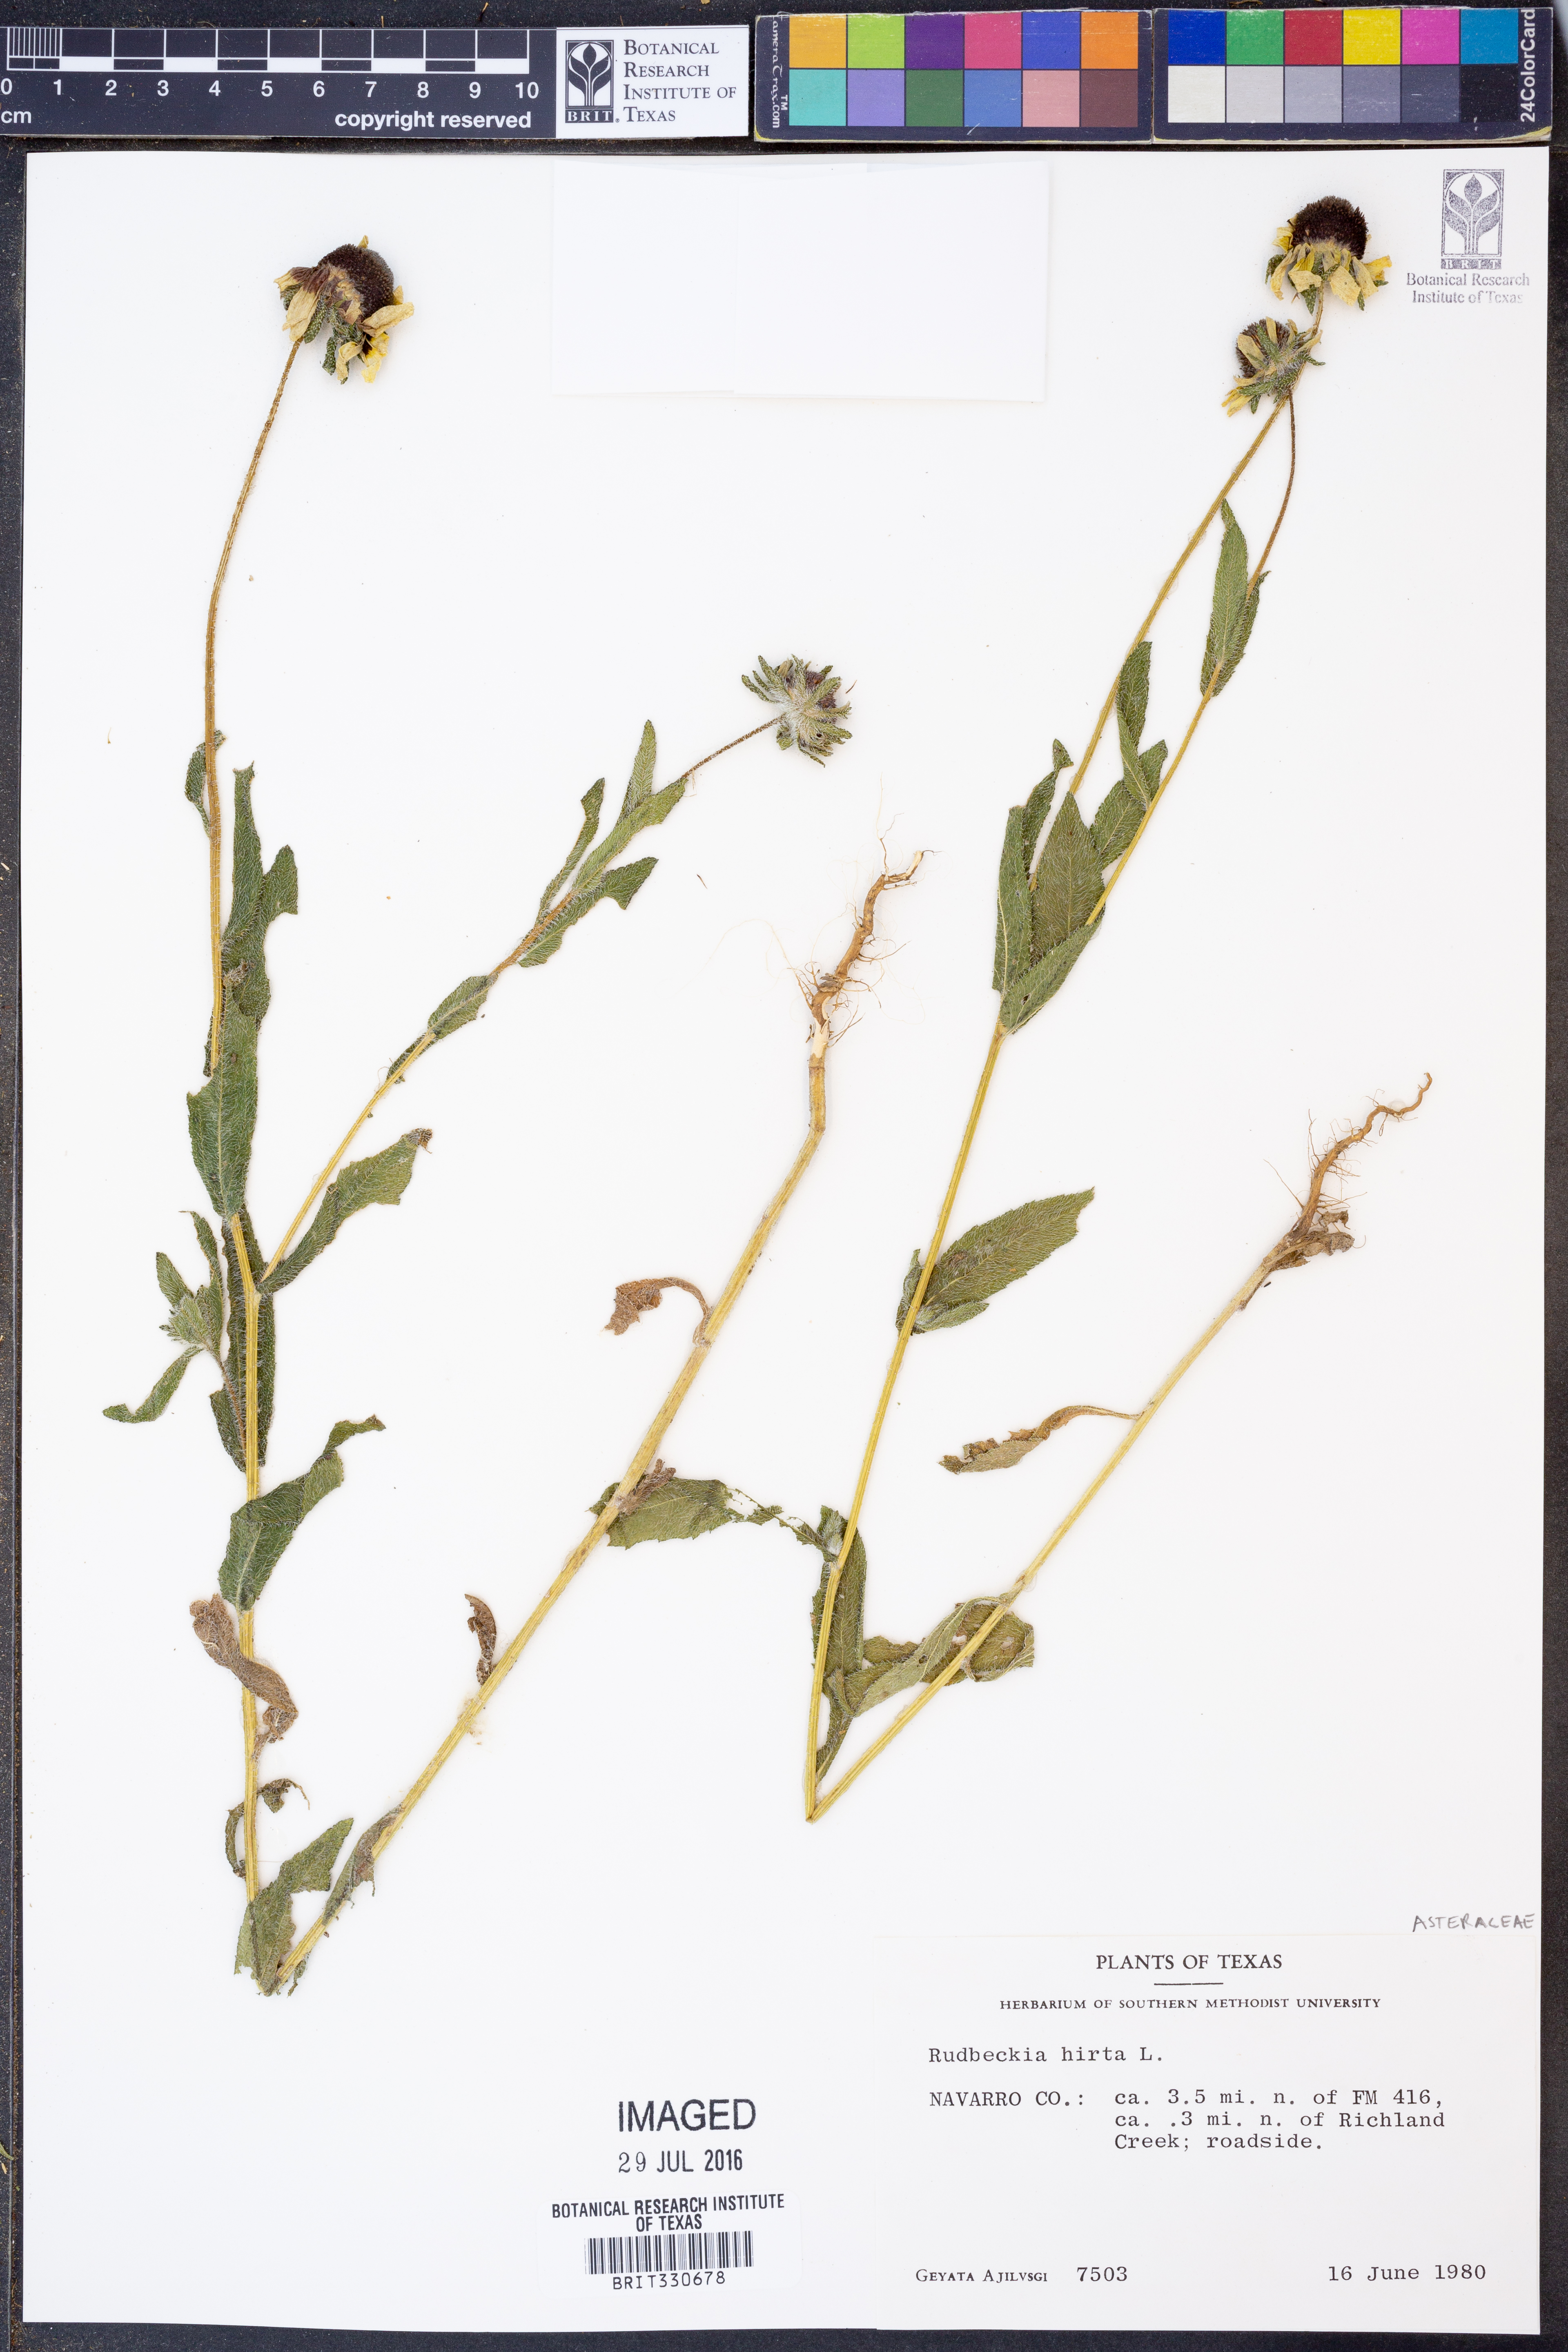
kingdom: Plantae
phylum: Tracheophyta
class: Magnoliopsida
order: Asterales
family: Asteraceae
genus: Rudbeckia
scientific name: Rudbeckia hirta
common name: Black-eyed-susan
